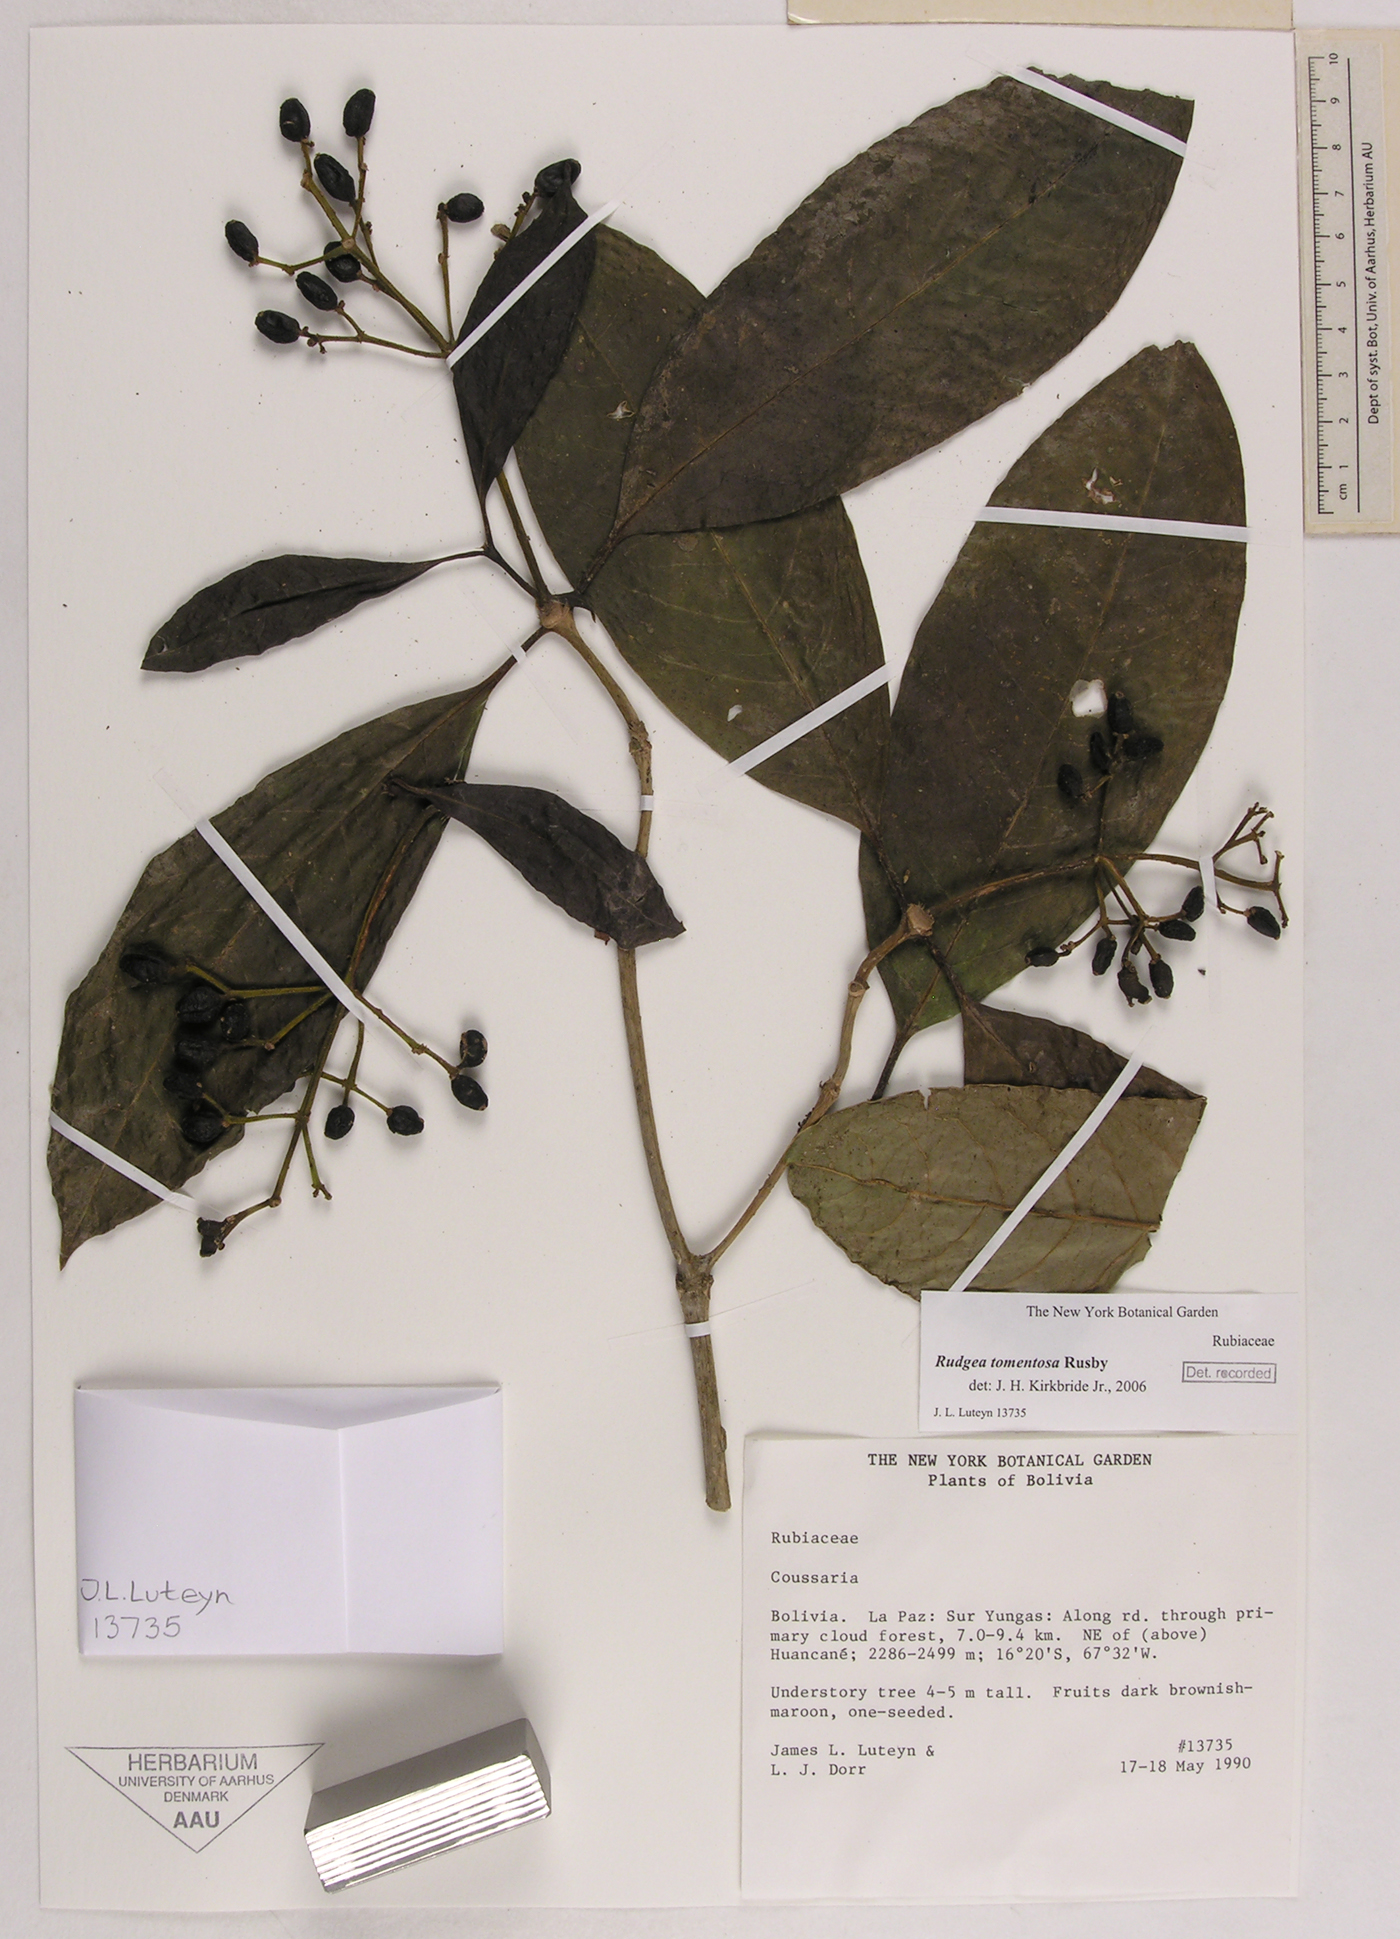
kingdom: Plantae
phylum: Tracheophyta
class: Magnoliopsida
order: Gentianales
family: Rubiaceae
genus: Rudgea
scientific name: Rudgea tomentosa
